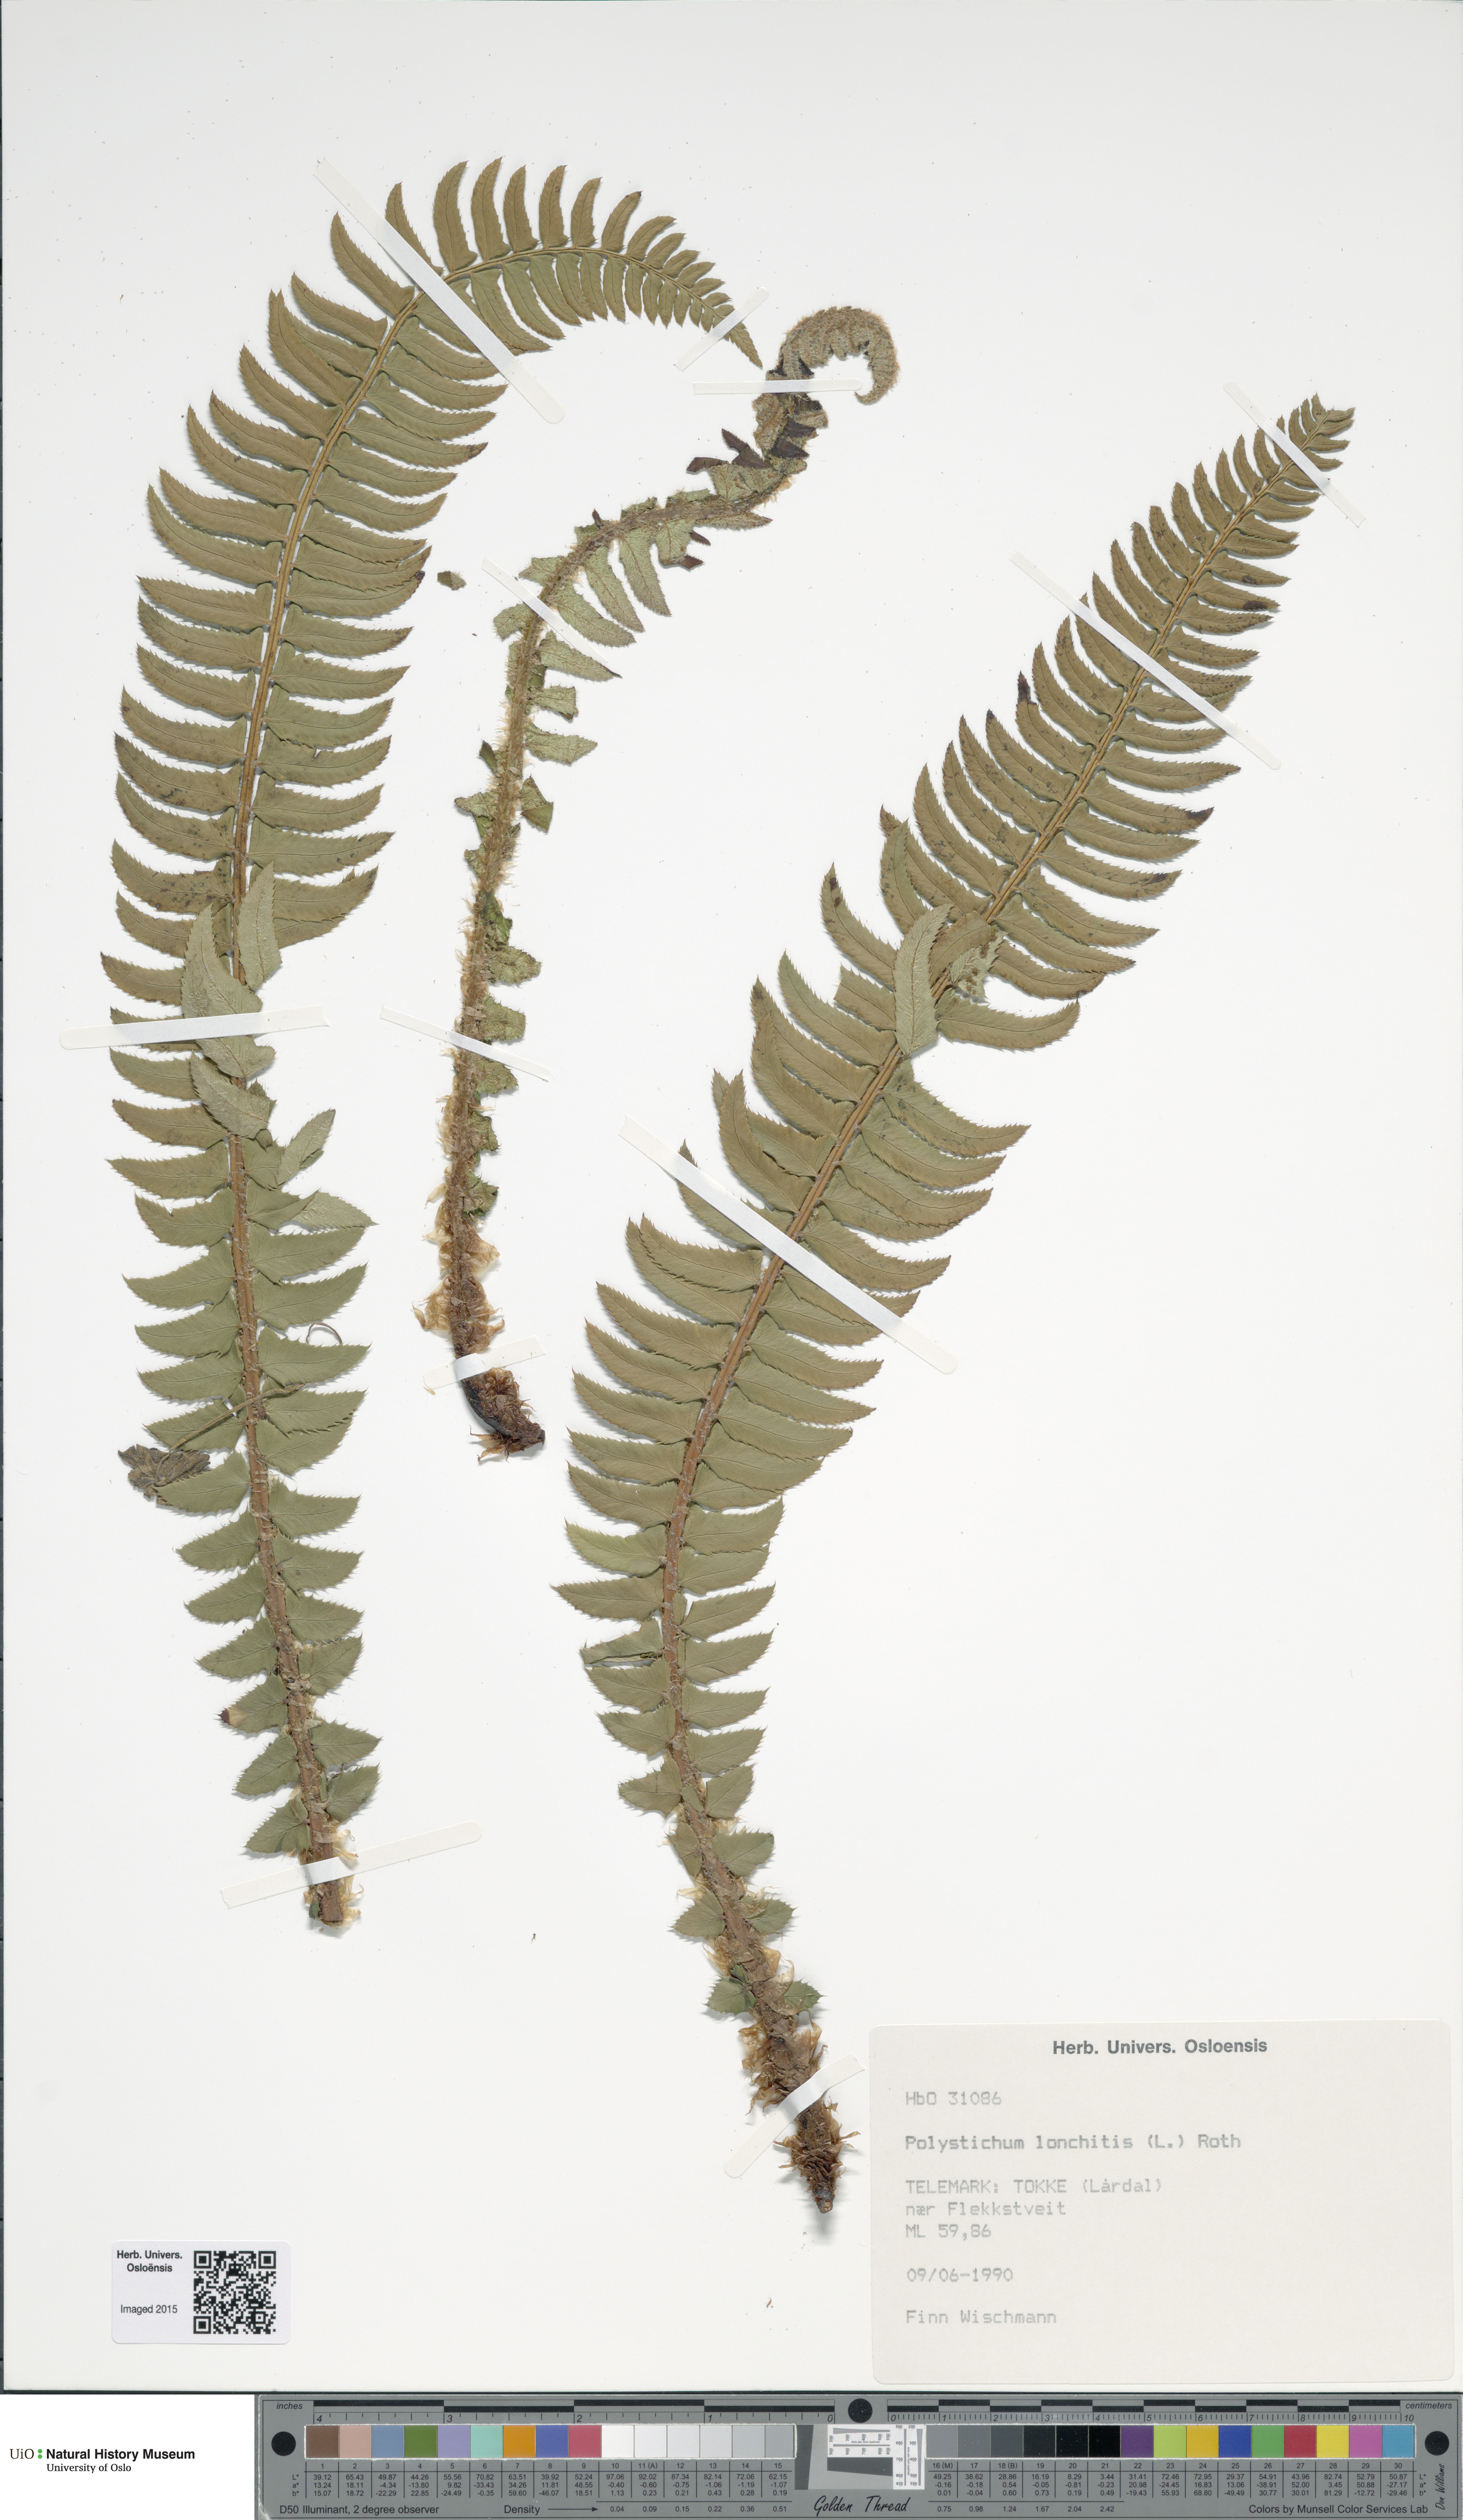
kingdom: Plantae
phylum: Tracheophyta
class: Polypodiopsida
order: Polypodiales
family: Dryopteridaceae
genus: Polystichum
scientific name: Polystichum lonchitis
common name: Holly fern
